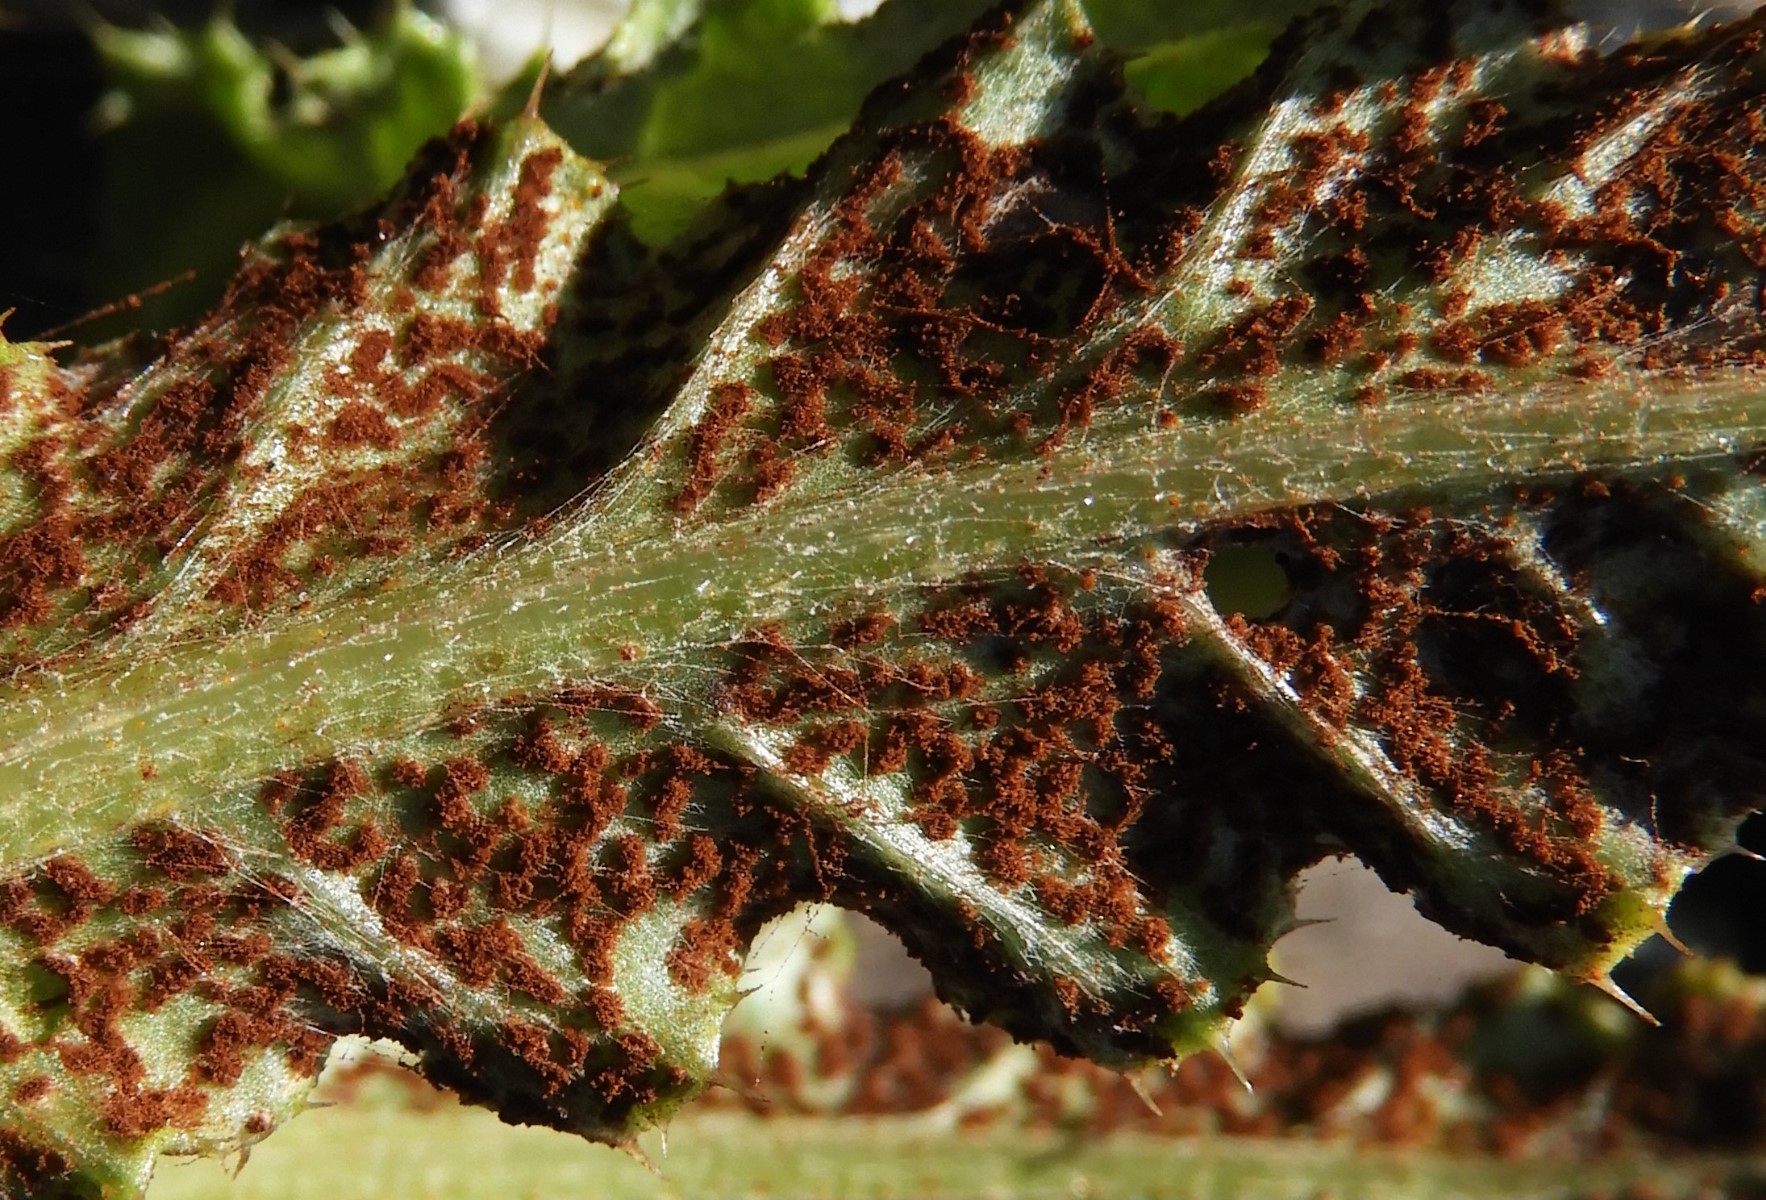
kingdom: Fungi
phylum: Basidiomycota
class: Pucciniomycetes
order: Pucciniales
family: Pucciniaceae
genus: Puccinia
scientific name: Puccinia suaveolens
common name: tidsel-tvecellerust
